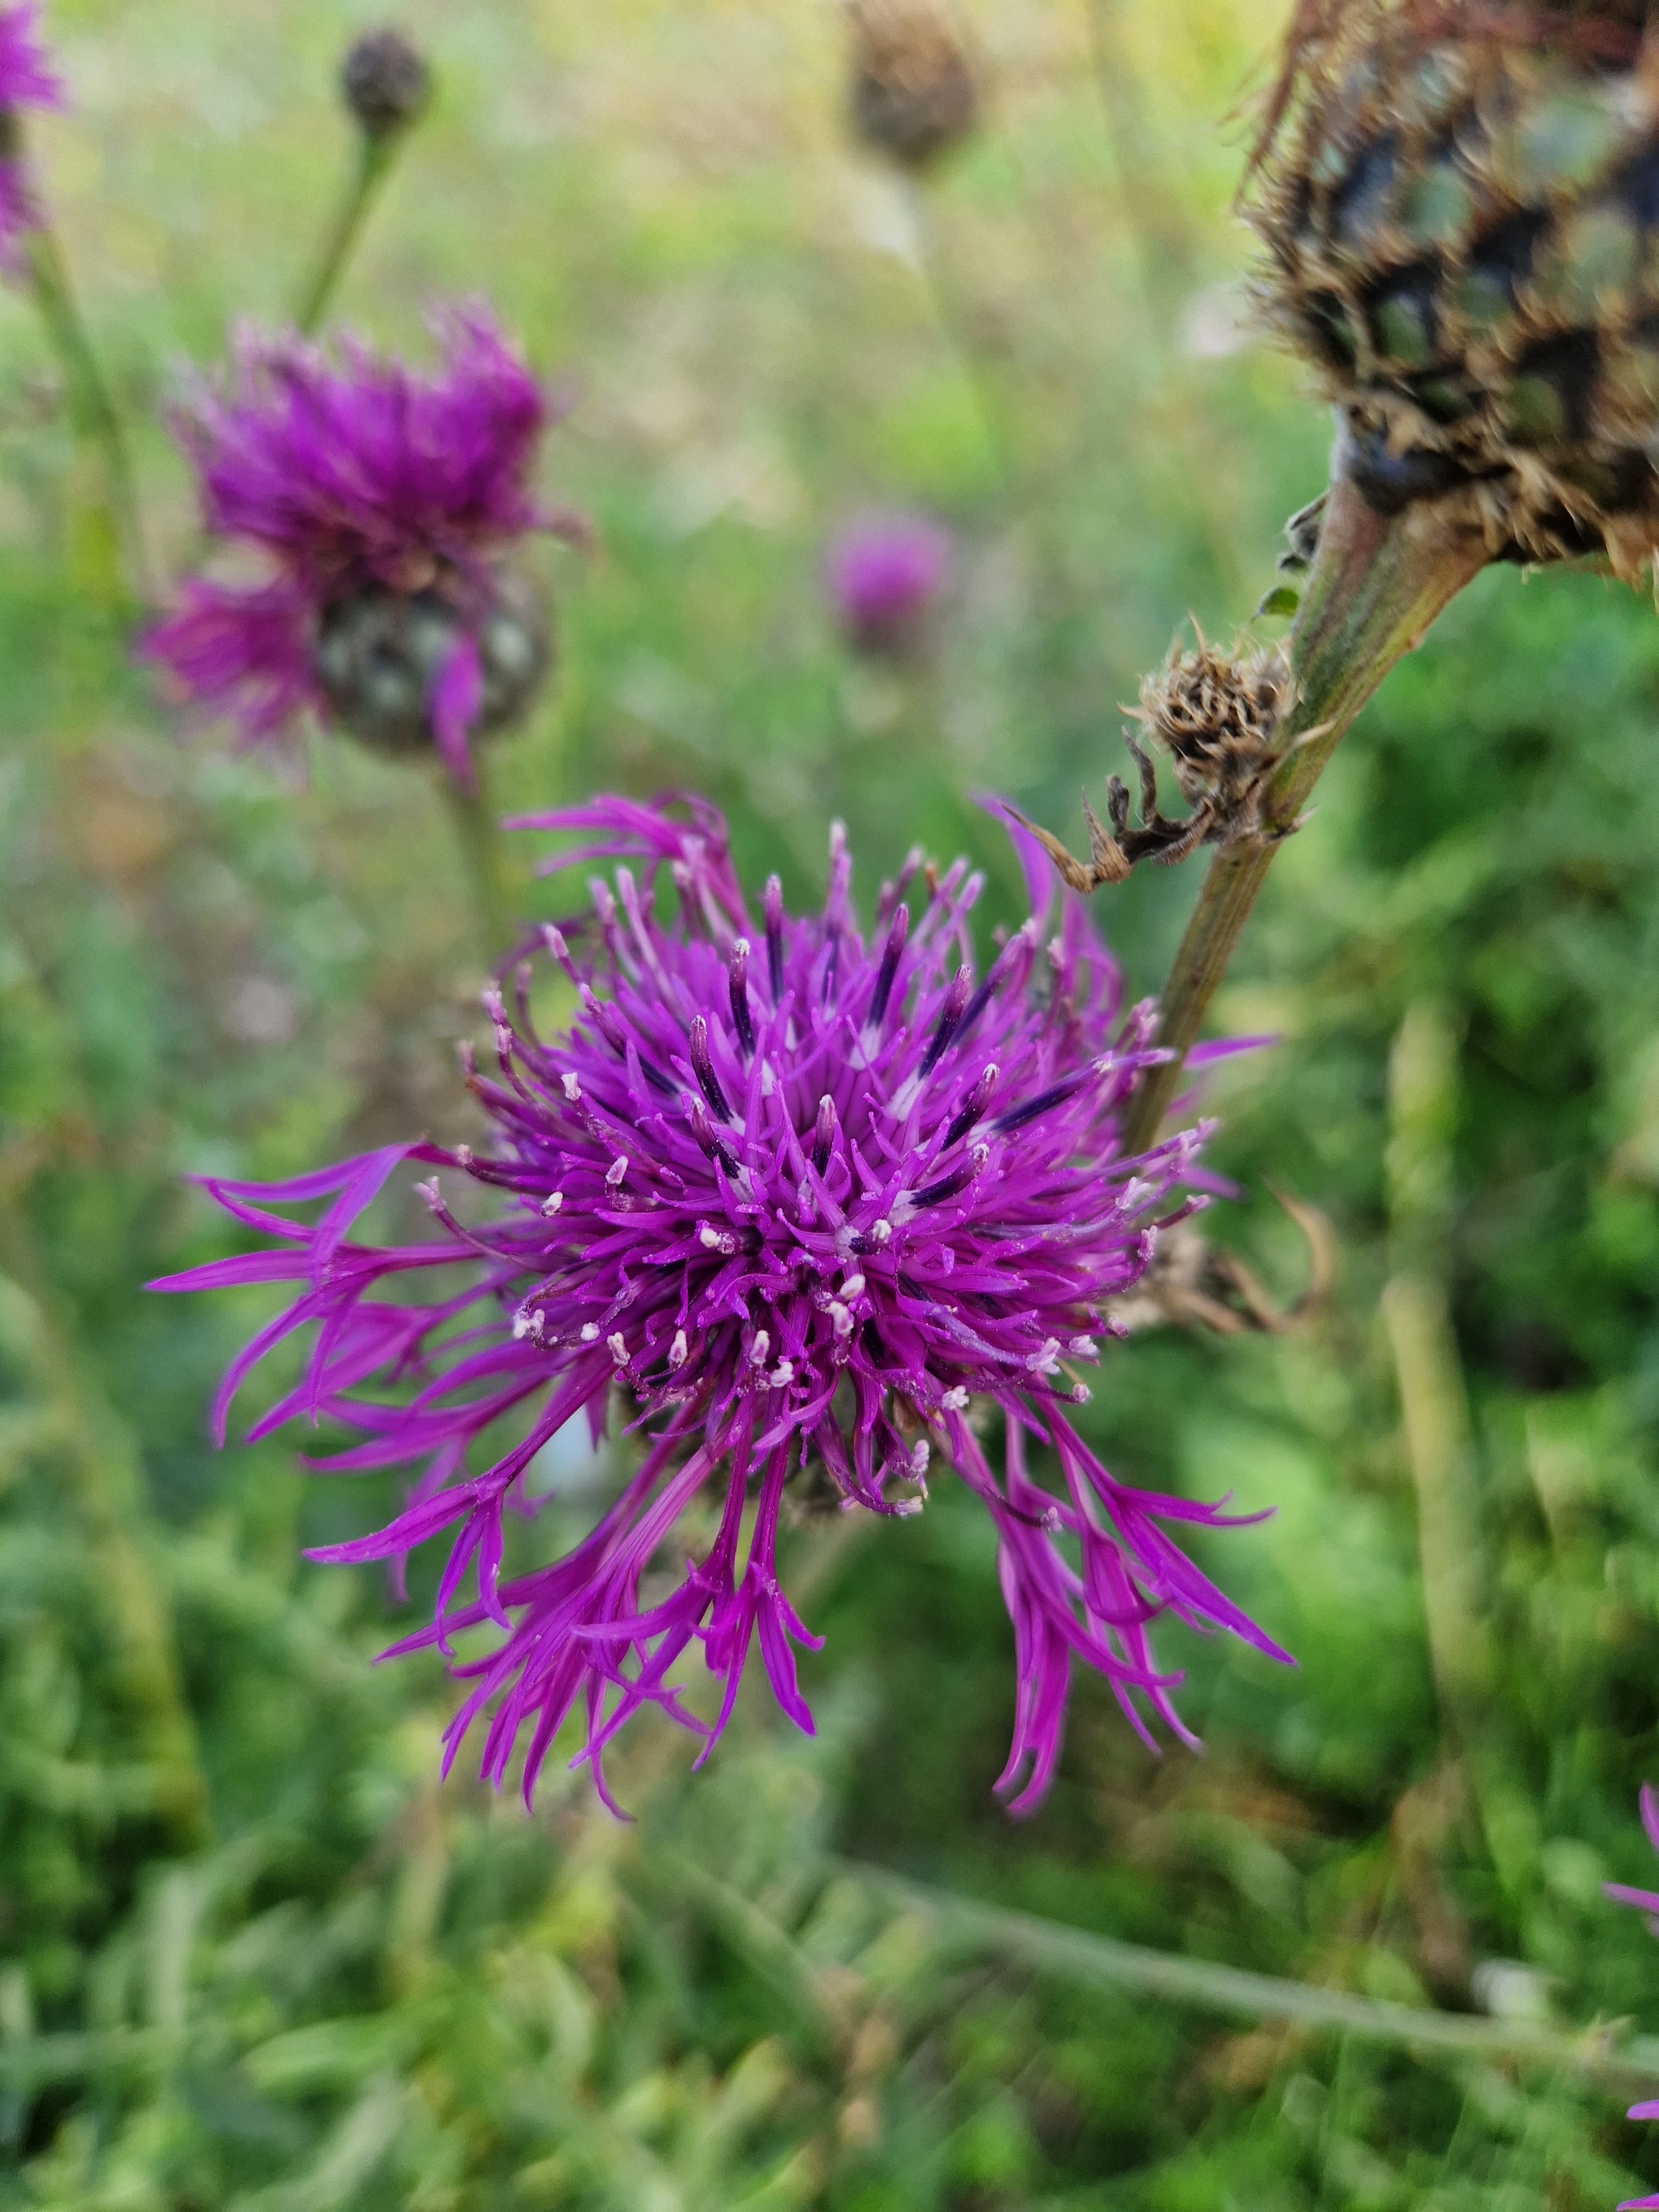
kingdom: Plantae
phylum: Tracheophyta
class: Magnoliopsida
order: Asterales
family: Asteraceae
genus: Centaurea
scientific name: Centaurea scabiosa
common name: Stor knopurt
